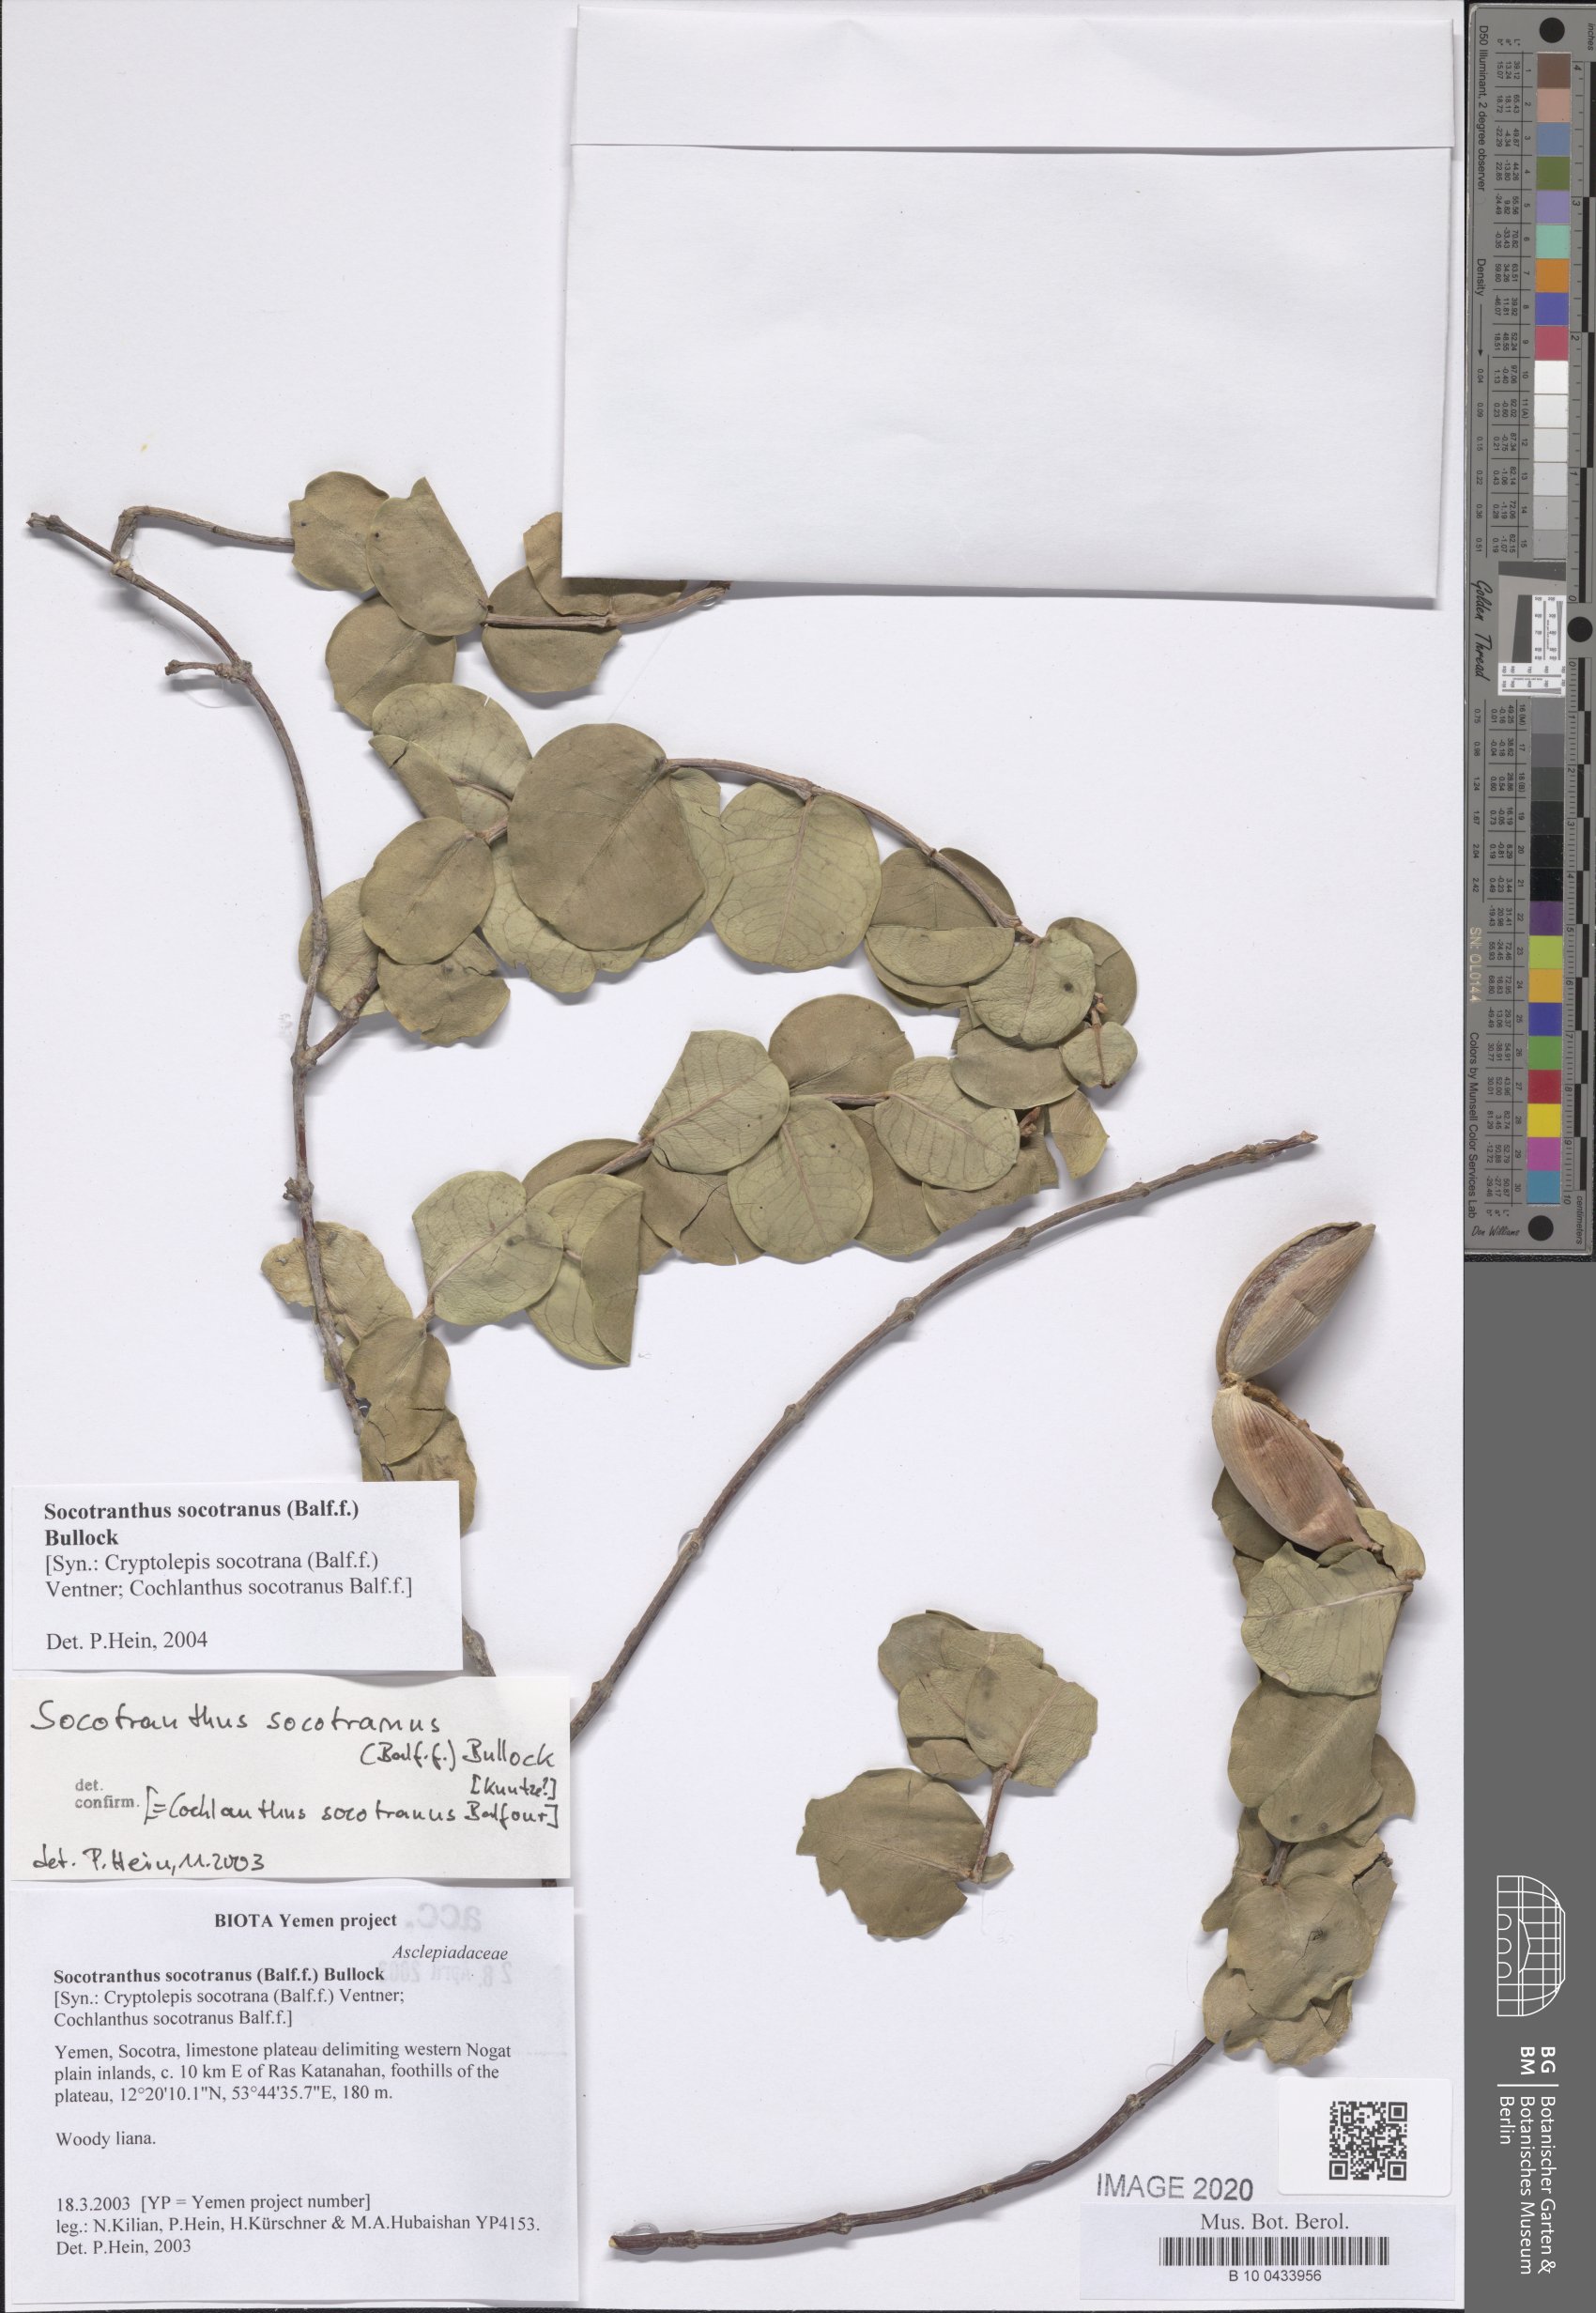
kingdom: Plantae
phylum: Tracheophyta
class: Magnoliopsida
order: Gentianales
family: Apocynaceae
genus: Cryptolepis
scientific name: Cryptolepis socotrana
